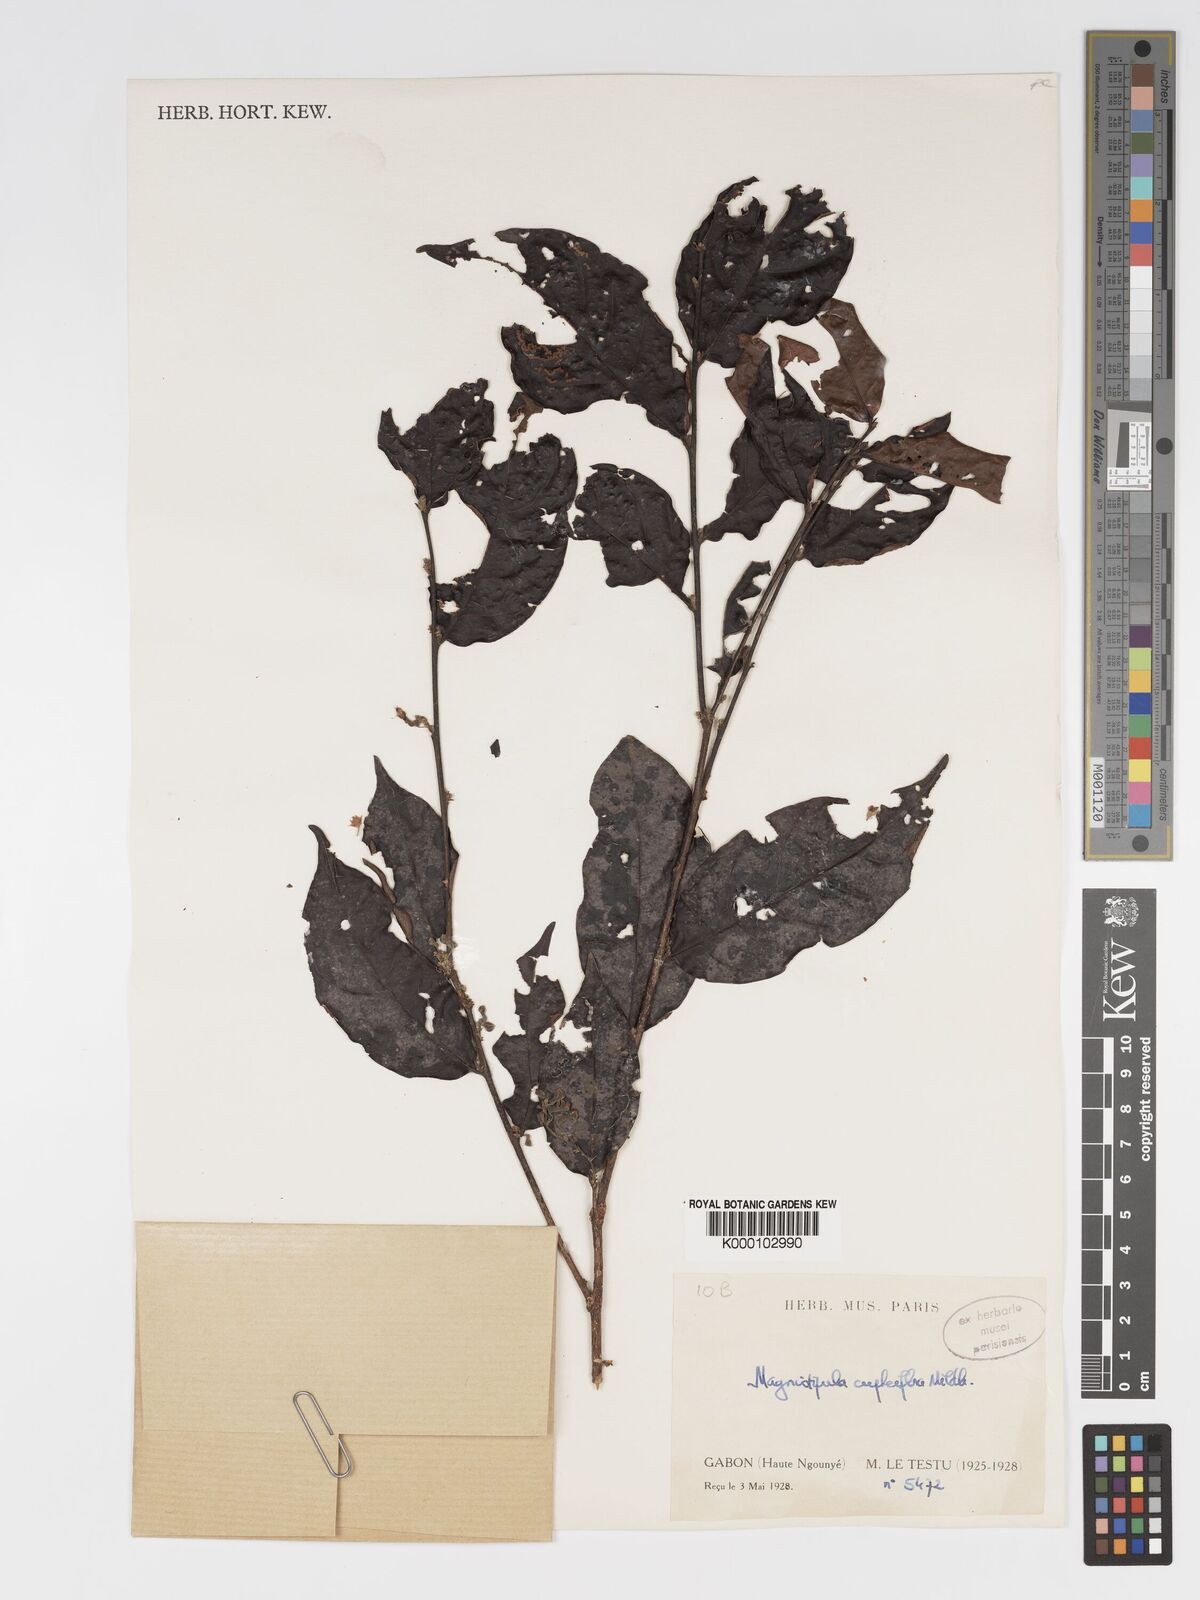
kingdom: Plantae
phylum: Tracheophyta
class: Magnoliopsida
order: Malpighiales
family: Chrysobalanaceae
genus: Magnistipula
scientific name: Magnistipula cupheiflora
